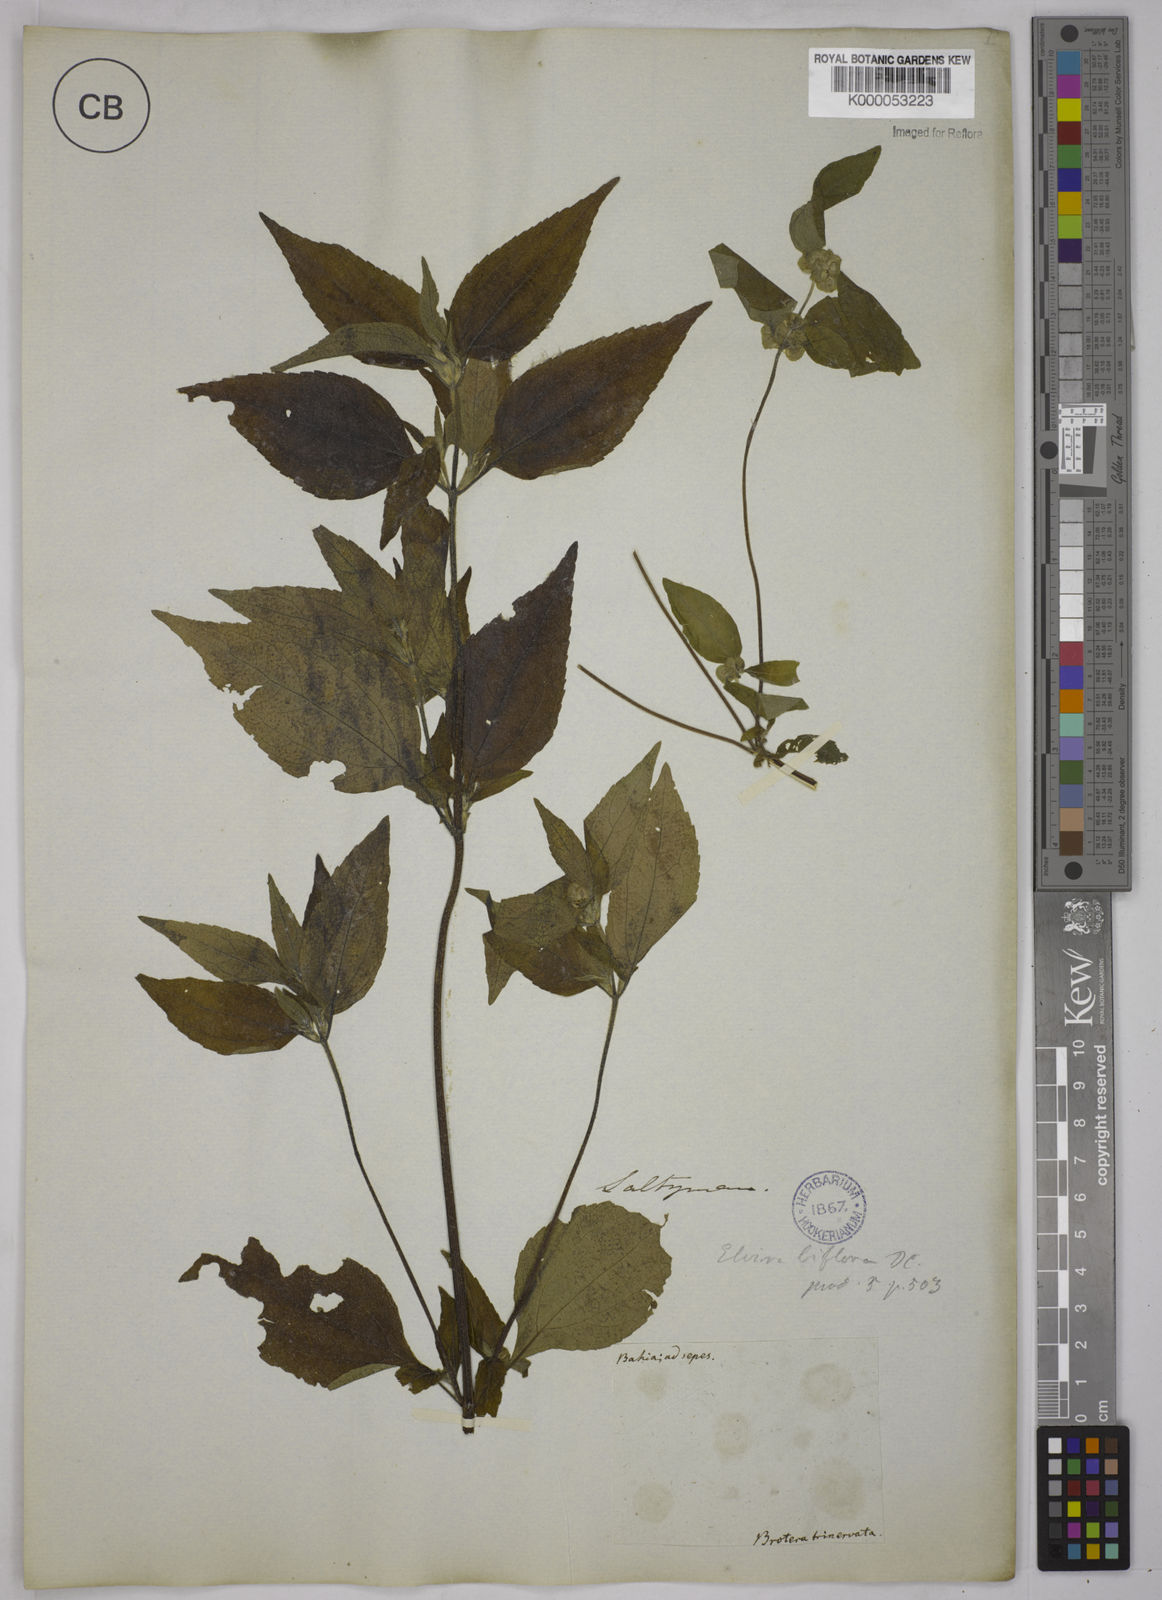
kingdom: Plantae
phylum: Tracheophyta
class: Magnoliopsida
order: Asterales
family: Asteraceae
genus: Delilia
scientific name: Delilia biflora
